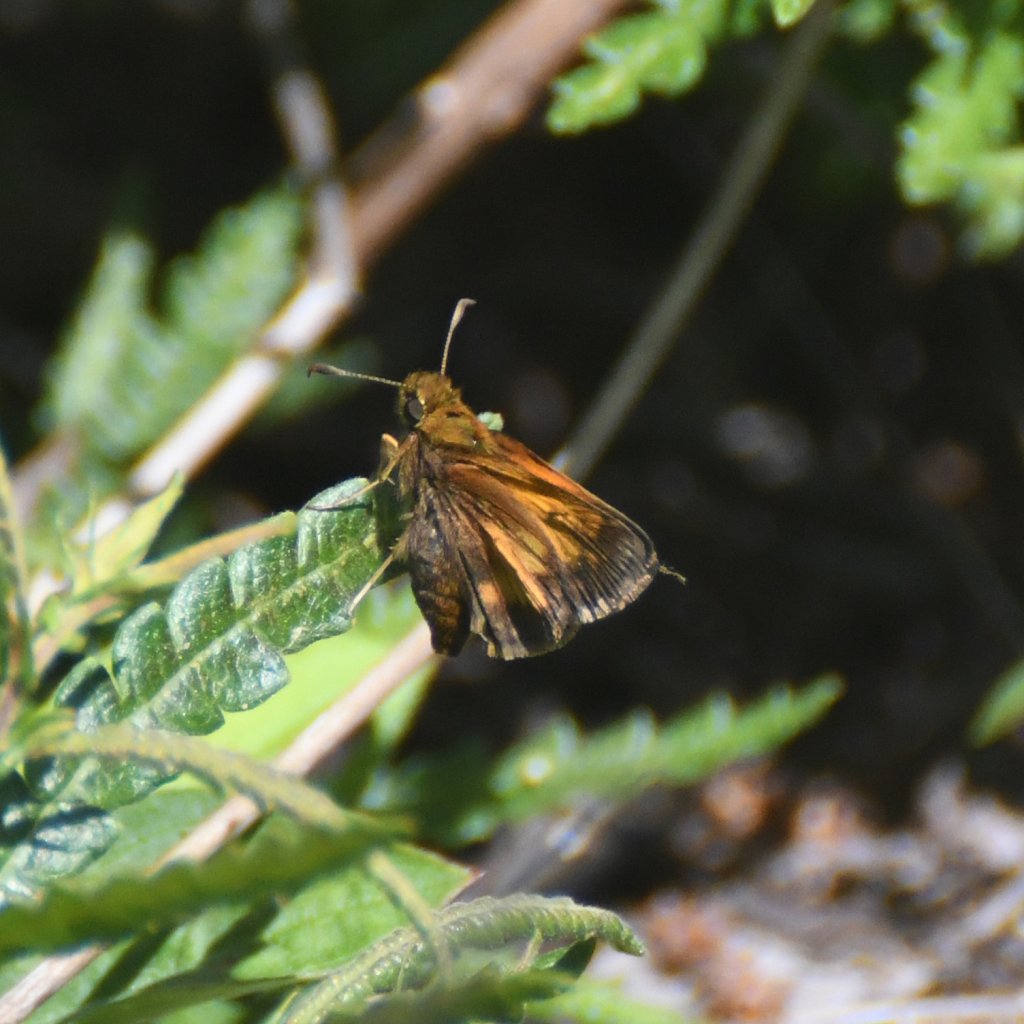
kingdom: Animalia
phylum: Arthropoda
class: Insecta
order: Lepidoptera
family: Hesperiidae
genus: Lon
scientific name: Lon hobomok
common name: Hobomok Skipper
